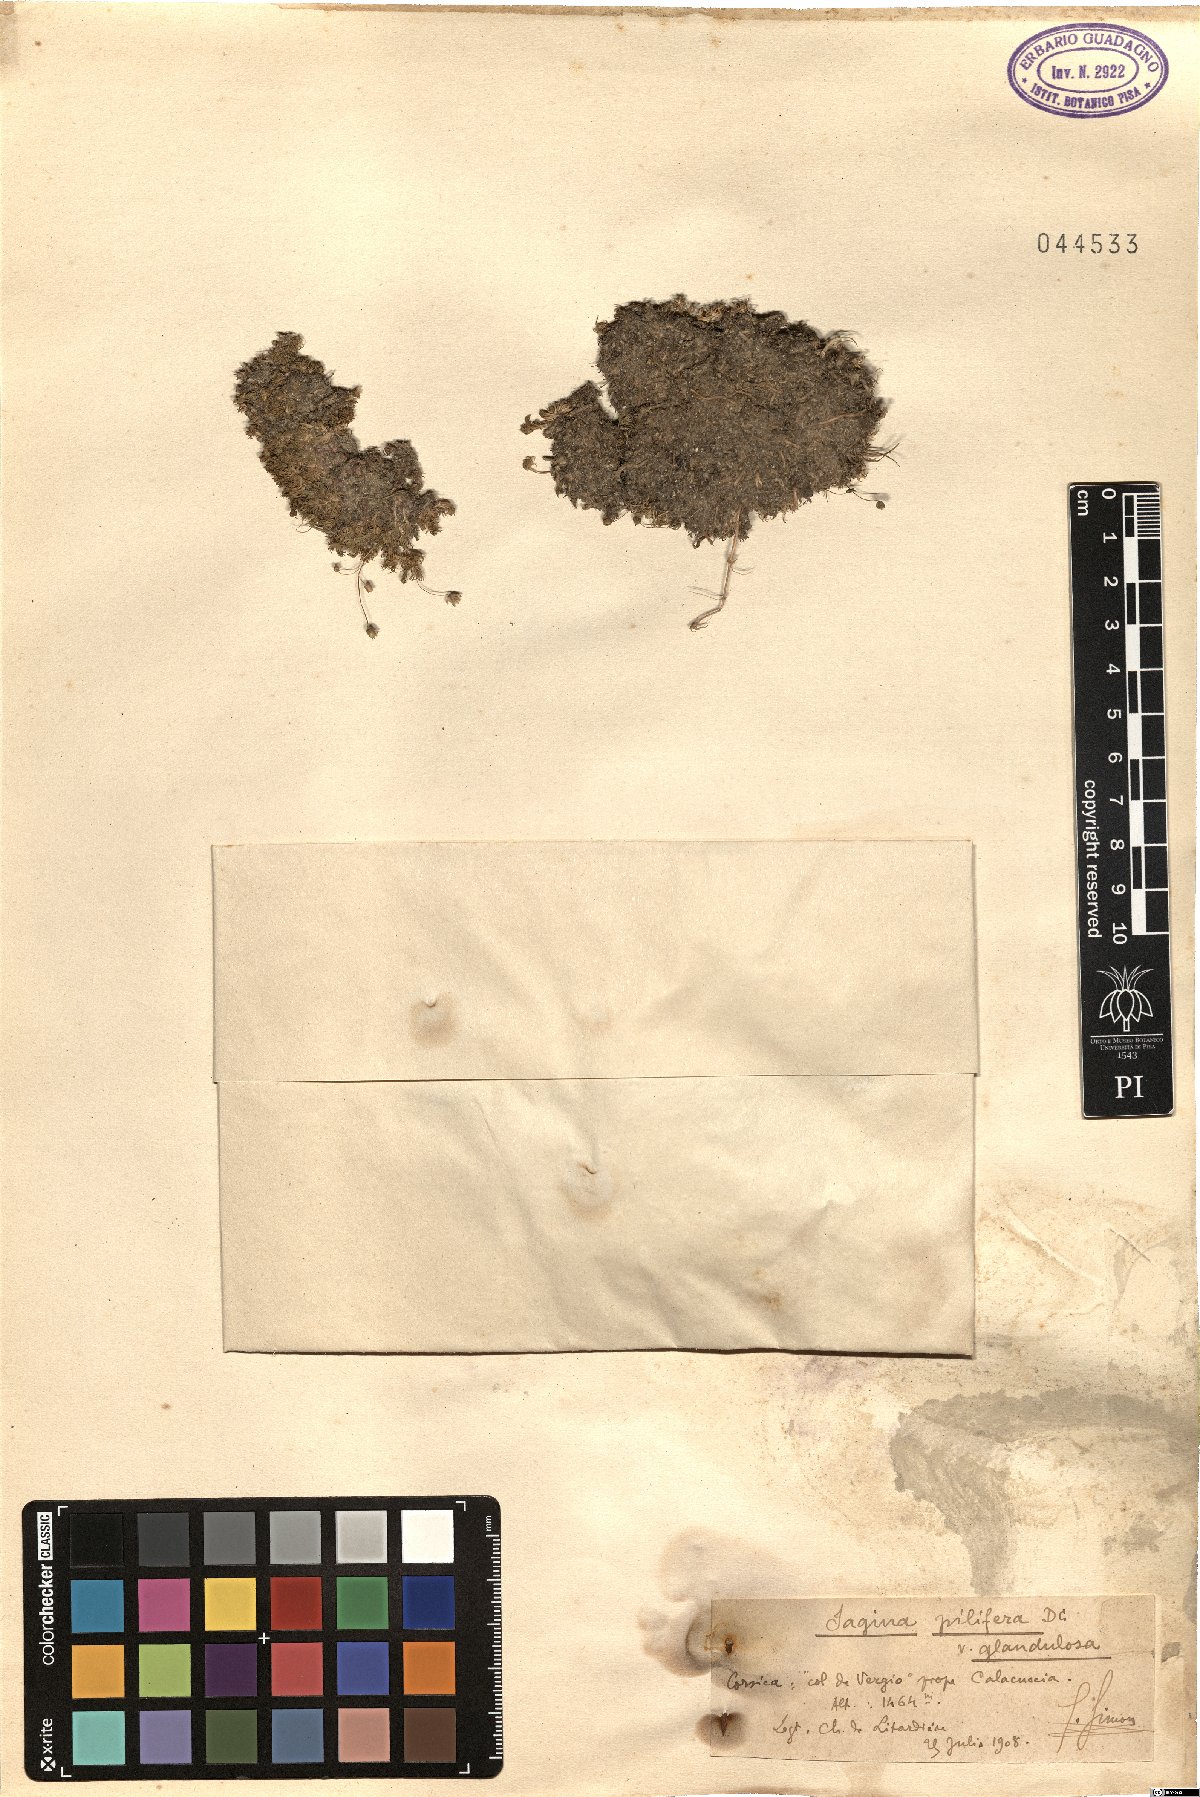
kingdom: Plantae
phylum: Tracheophyta
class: Magnoliopsida
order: Caryophyllales
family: Caryophyllaceae
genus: Sagina
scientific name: Sagina pilifera
